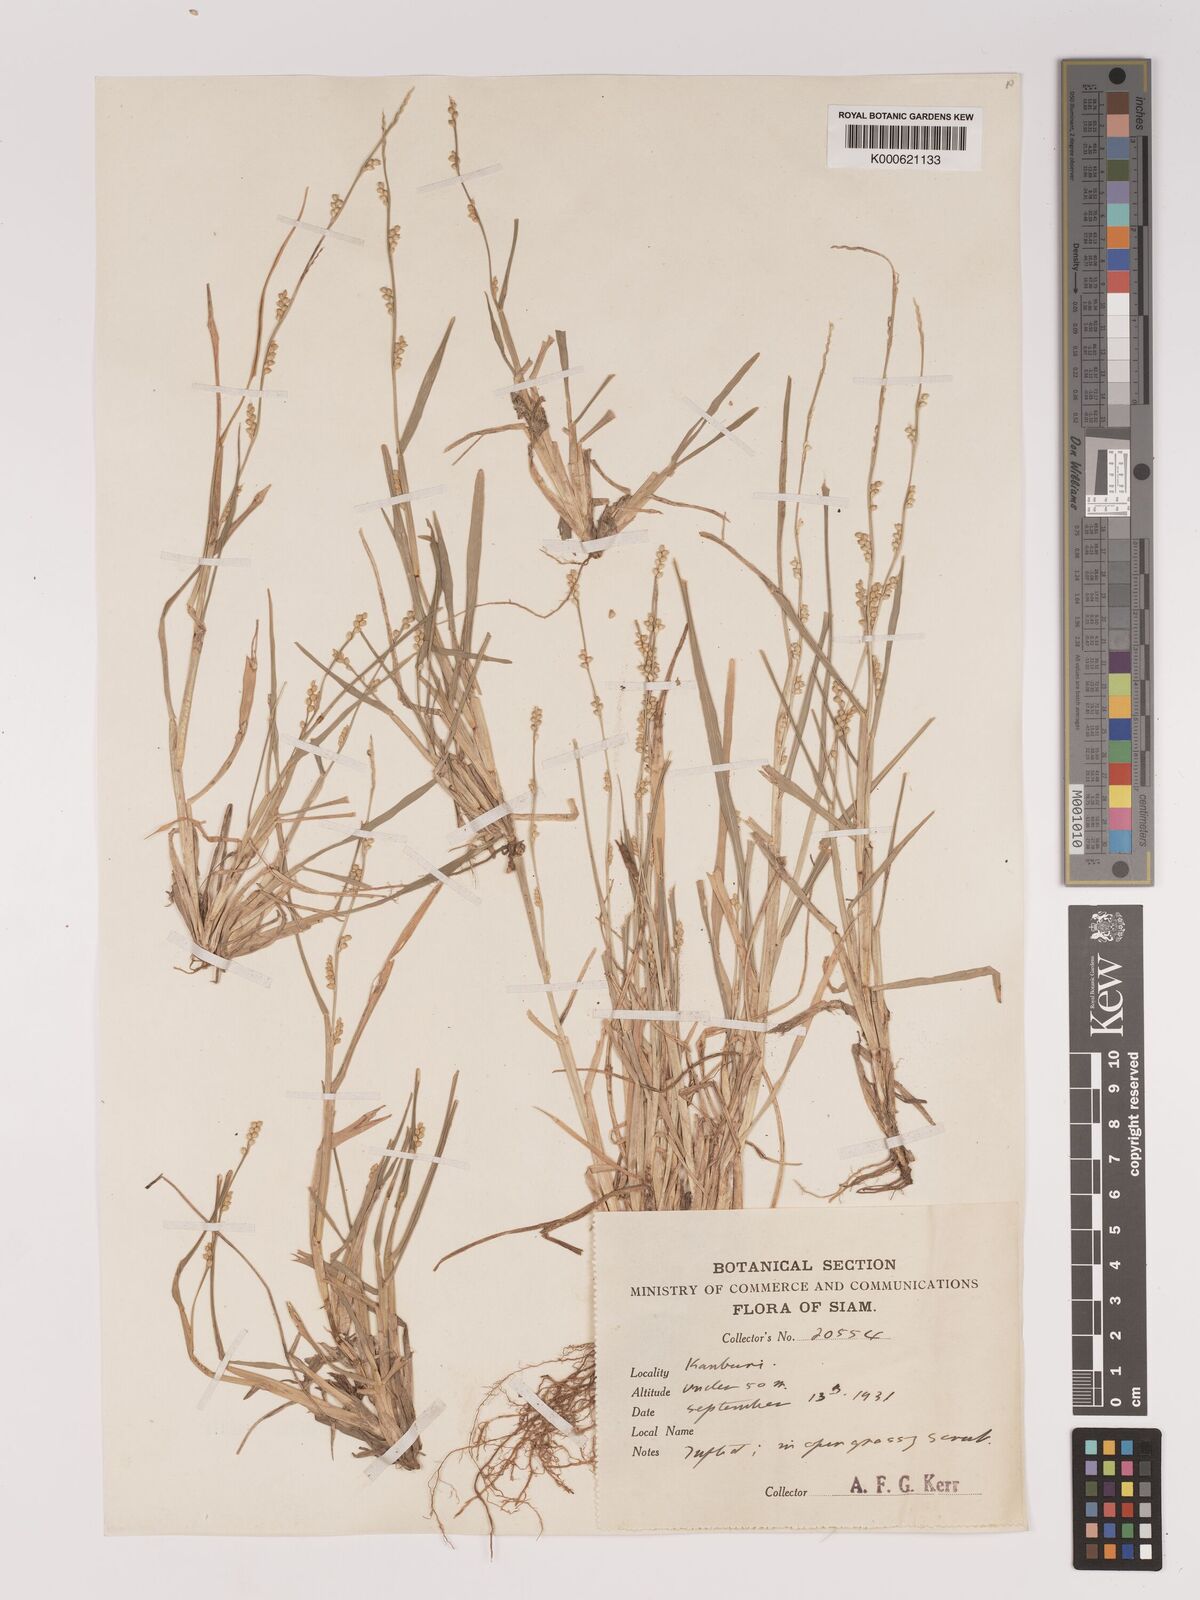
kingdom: Plantae
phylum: Tracheophyta
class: Liliopsida
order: Poales
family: Poaceae
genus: Setaria
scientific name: Setaria flavida
